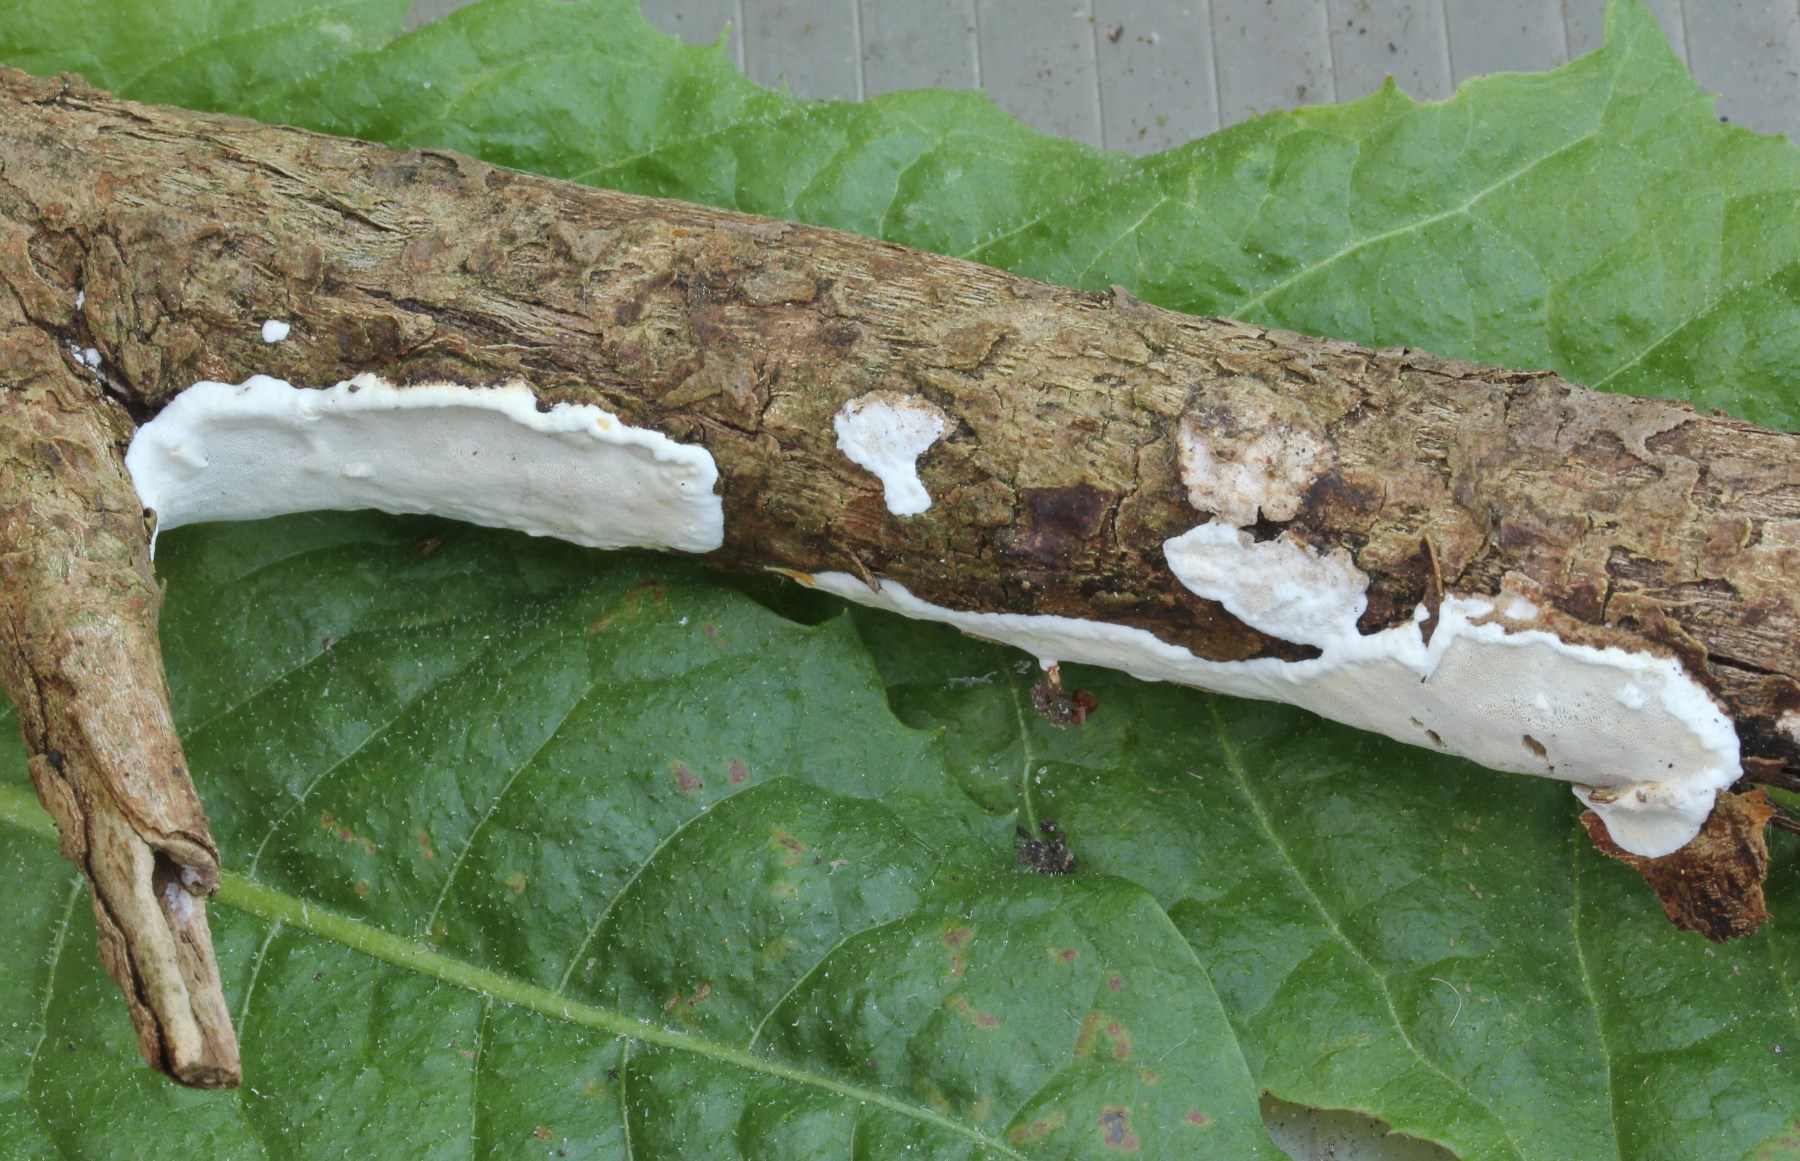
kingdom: Fungi
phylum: Basidiomycota
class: Agaricomycetes
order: Polyporales
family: Incrustoporiaceae
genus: Skeletocutis
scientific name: Skeletocutis nemoralis
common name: stor krystalporesvamp
